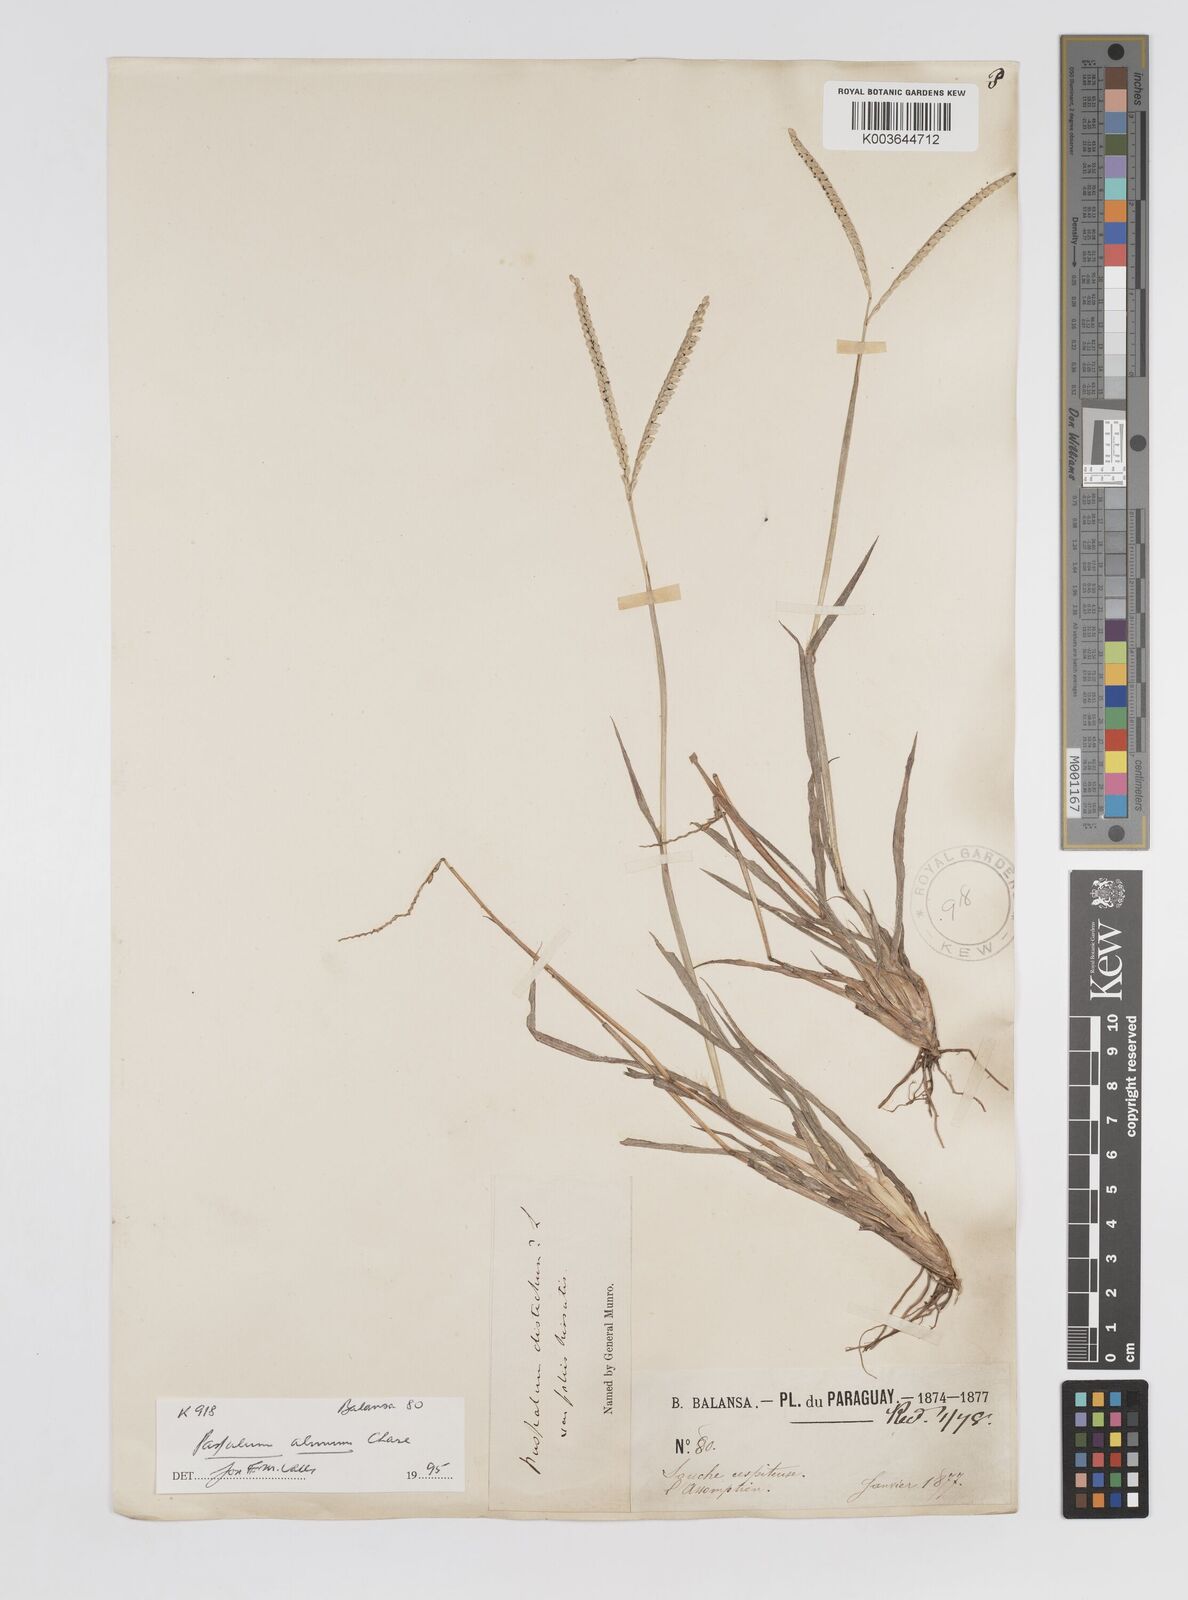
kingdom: Plantae
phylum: Tracheophyta
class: Liliopsida
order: Poales
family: Poaceae
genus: Paspalum
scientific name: Paspalum almum
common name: Comb's crowngrass
